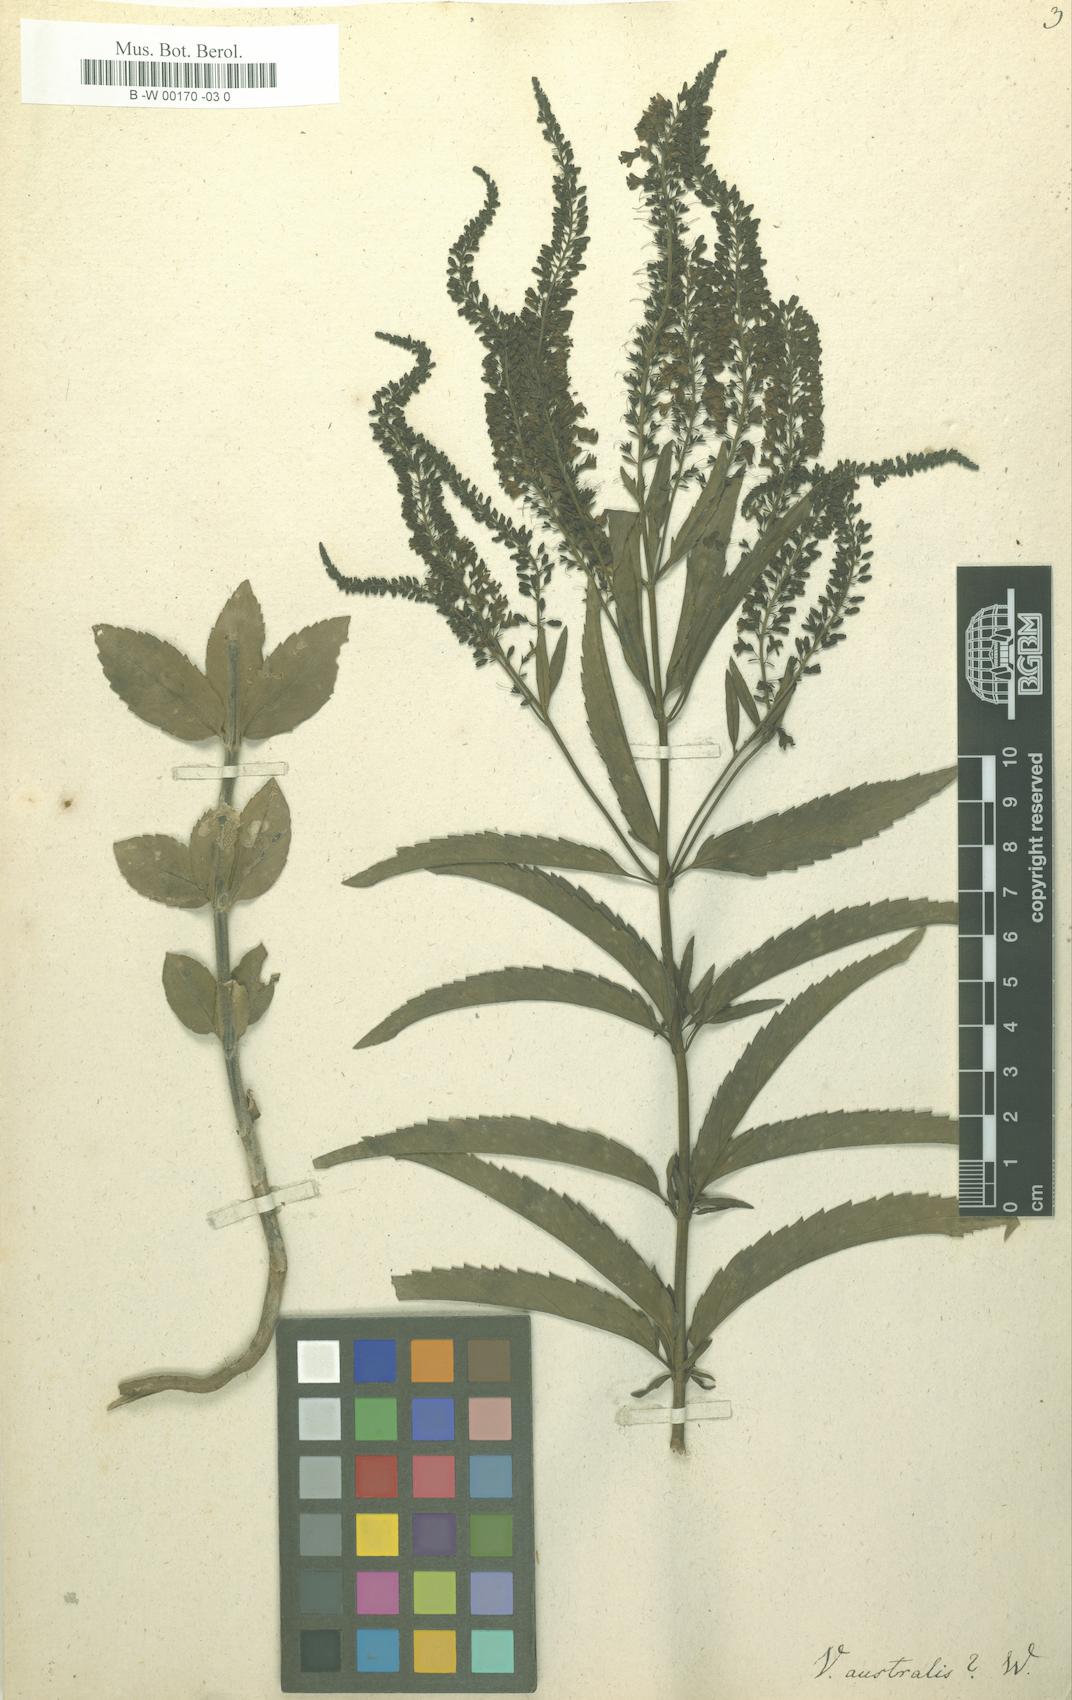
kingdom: Plantae
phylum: Tracheophyta
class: Magnoliopsida
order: Lamiales
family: Plantaginaceae
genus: Veronica
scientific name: Veronica spicata
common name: Spiked speedwell
